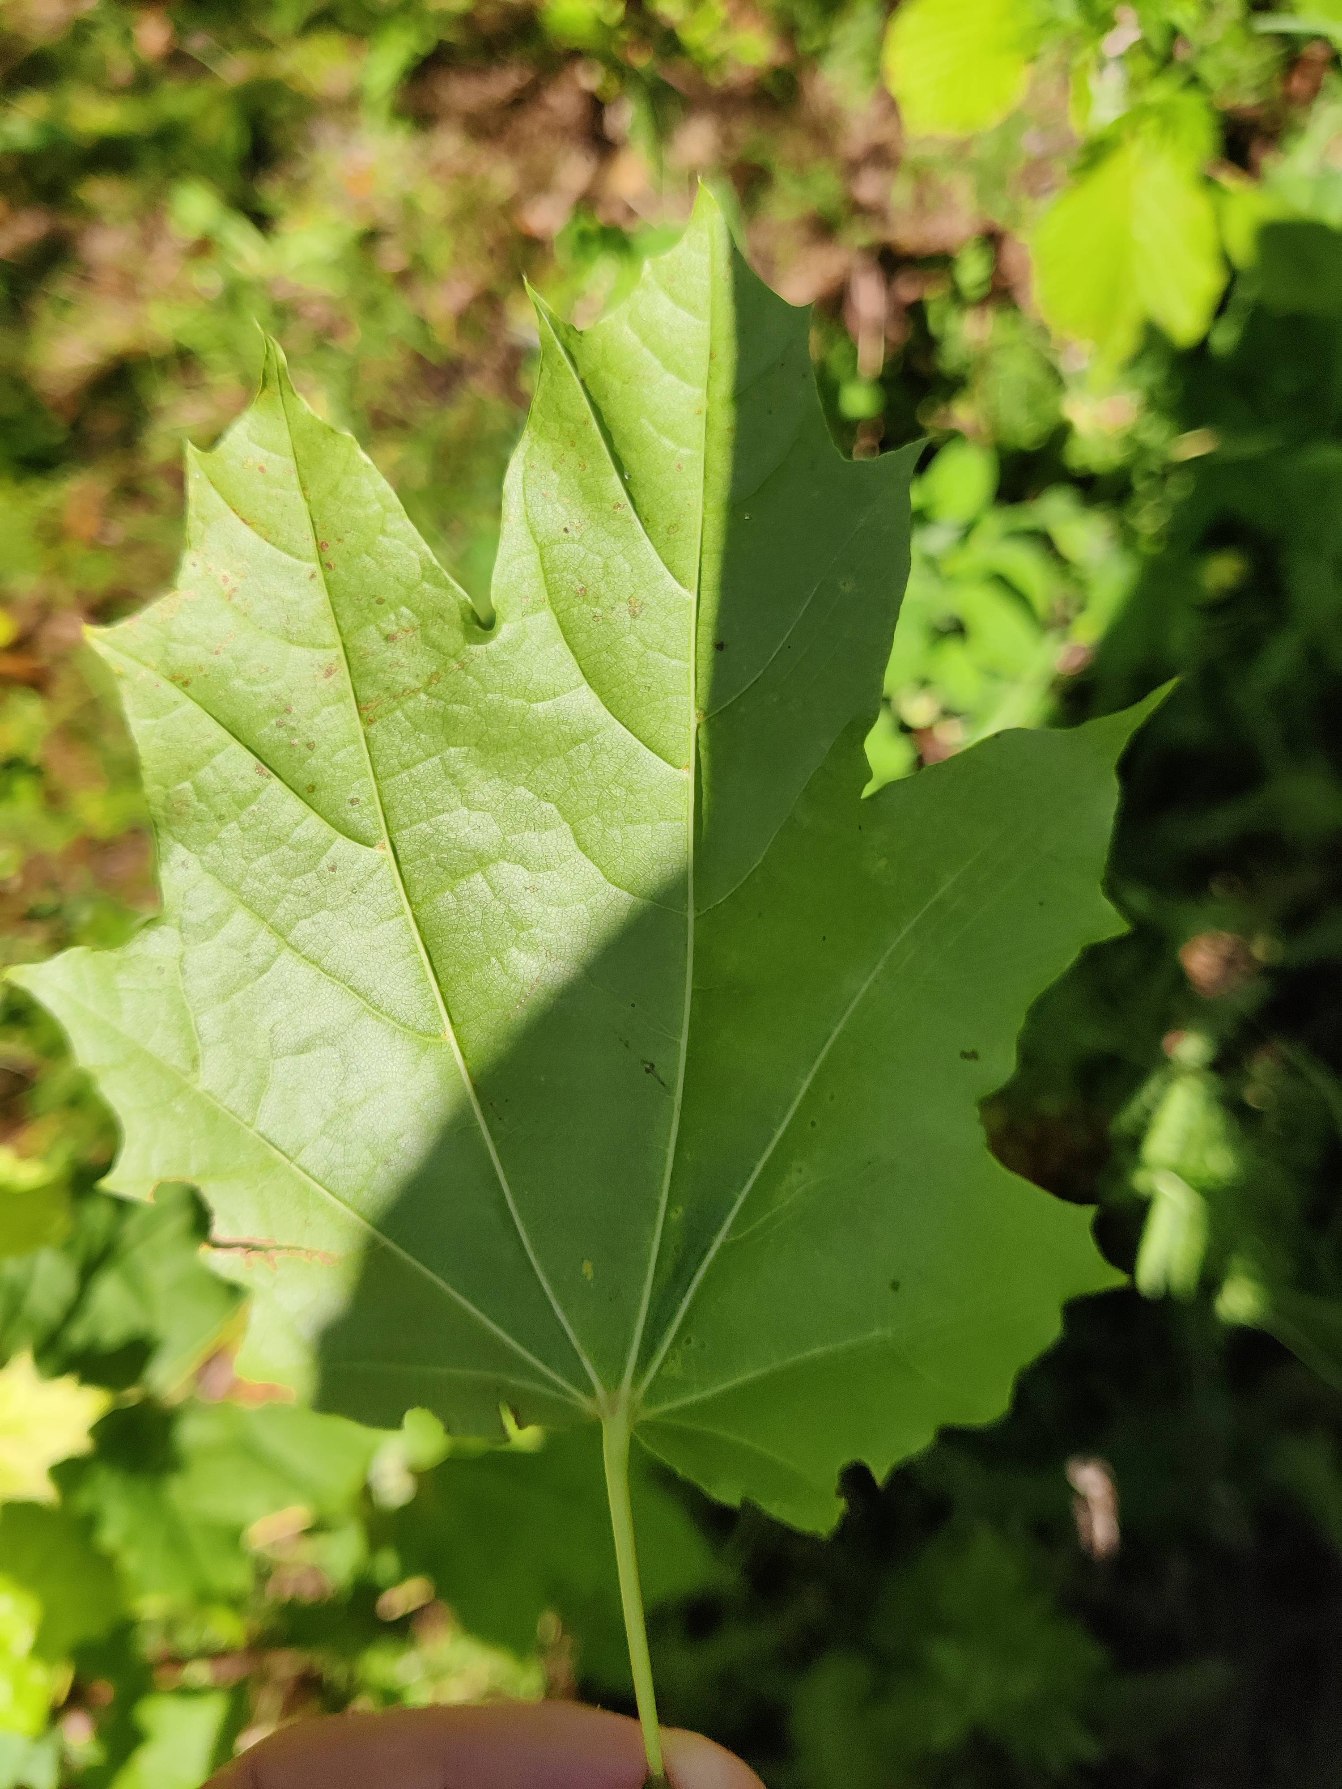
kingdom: Plantae
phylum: Tracheophyta
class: Magnoliopsida
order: Sapindales
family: Sapindaceae
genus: Acer
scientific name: Acer platanoides
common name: Spids-løn
